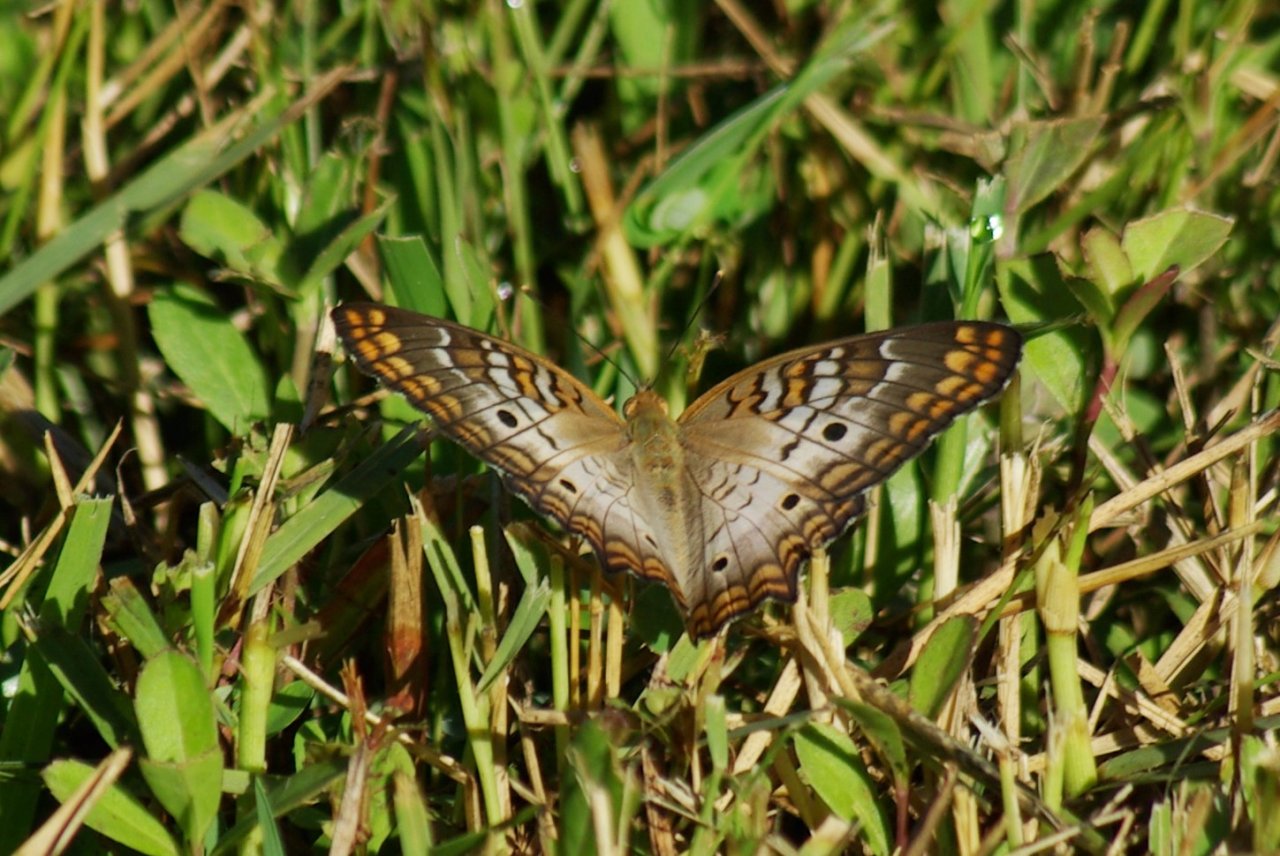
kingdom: Animalia
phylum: Arthropoda
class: Insecta
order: Lepidoptera
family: Nymphalidae
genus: Anartia
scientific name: Anartia jatrophae
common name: White Peacock
